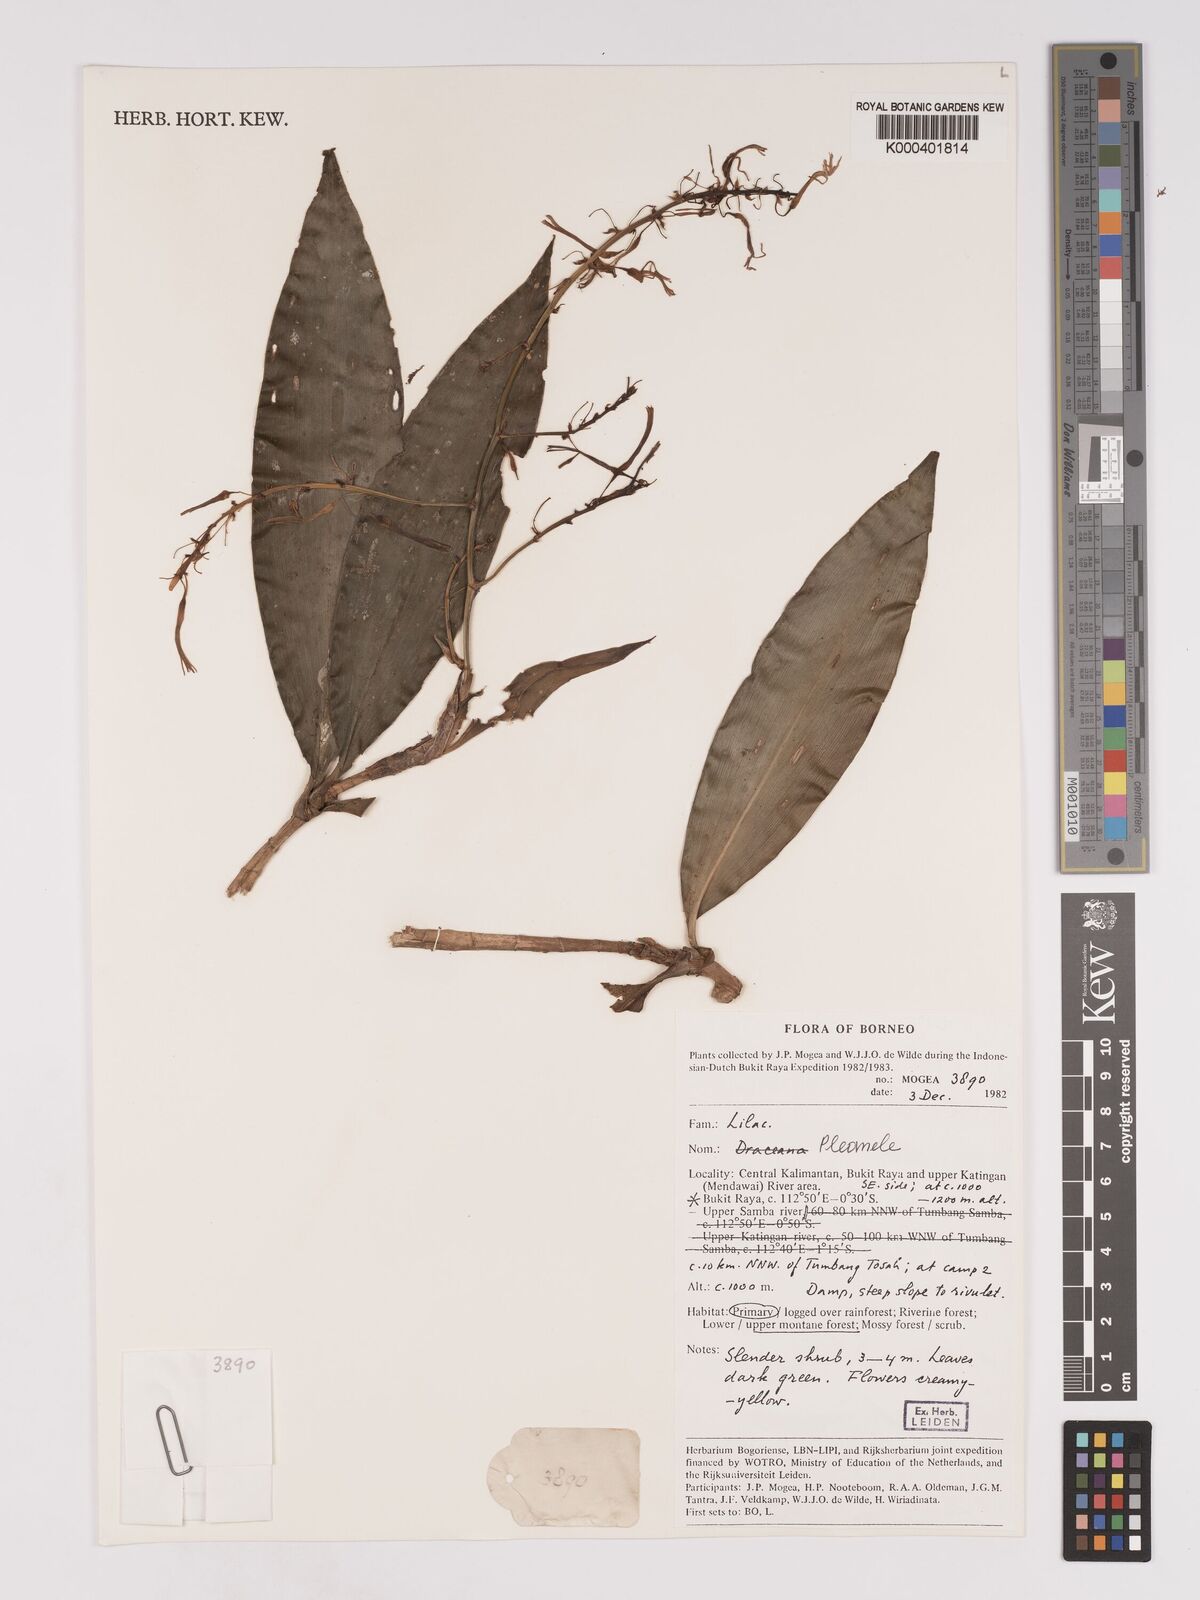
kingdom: Plantae
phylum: Tracheophyta
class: Liliopsida
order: Asparagales
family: Asparagaceae
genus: Dracaena
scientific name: Dracaena
